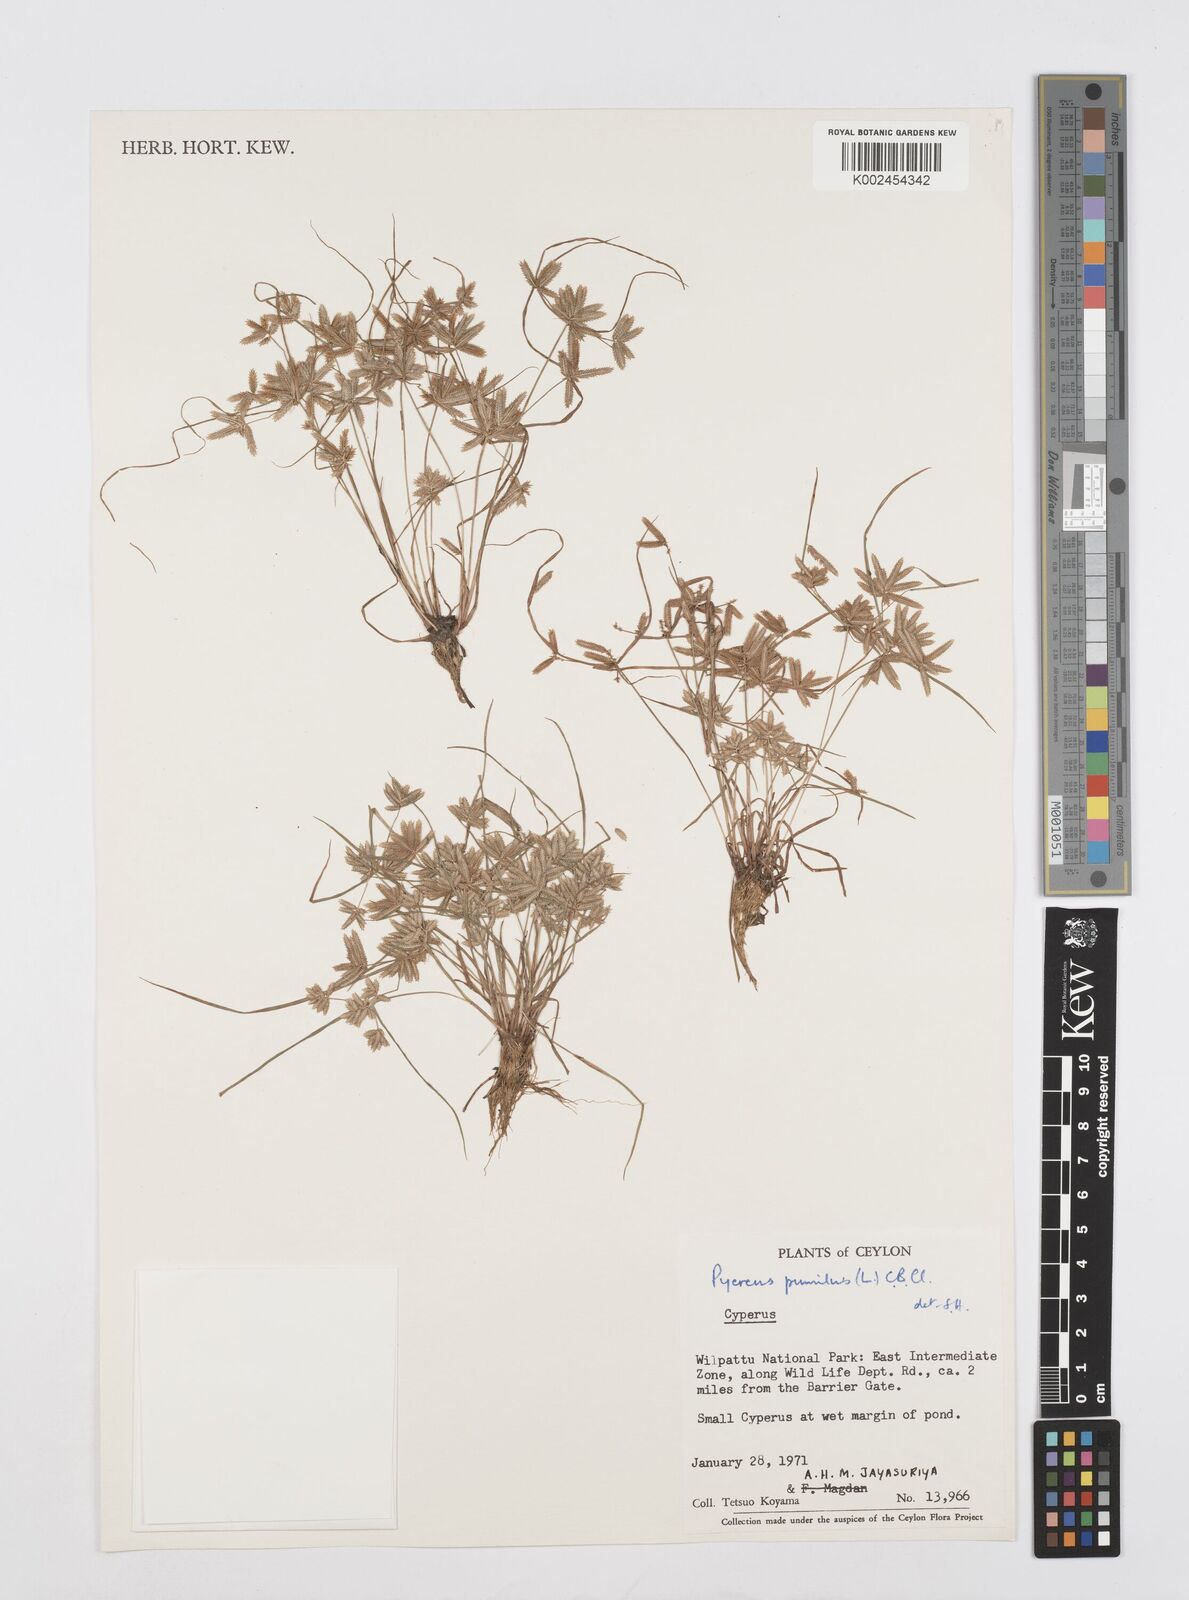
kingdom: Plantae
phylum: Tracheophyta
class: Liliopsida
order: Poales
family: Cyperaceae
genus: Cyperus
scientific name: Cyperus pumilus
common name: Low flatsedge
